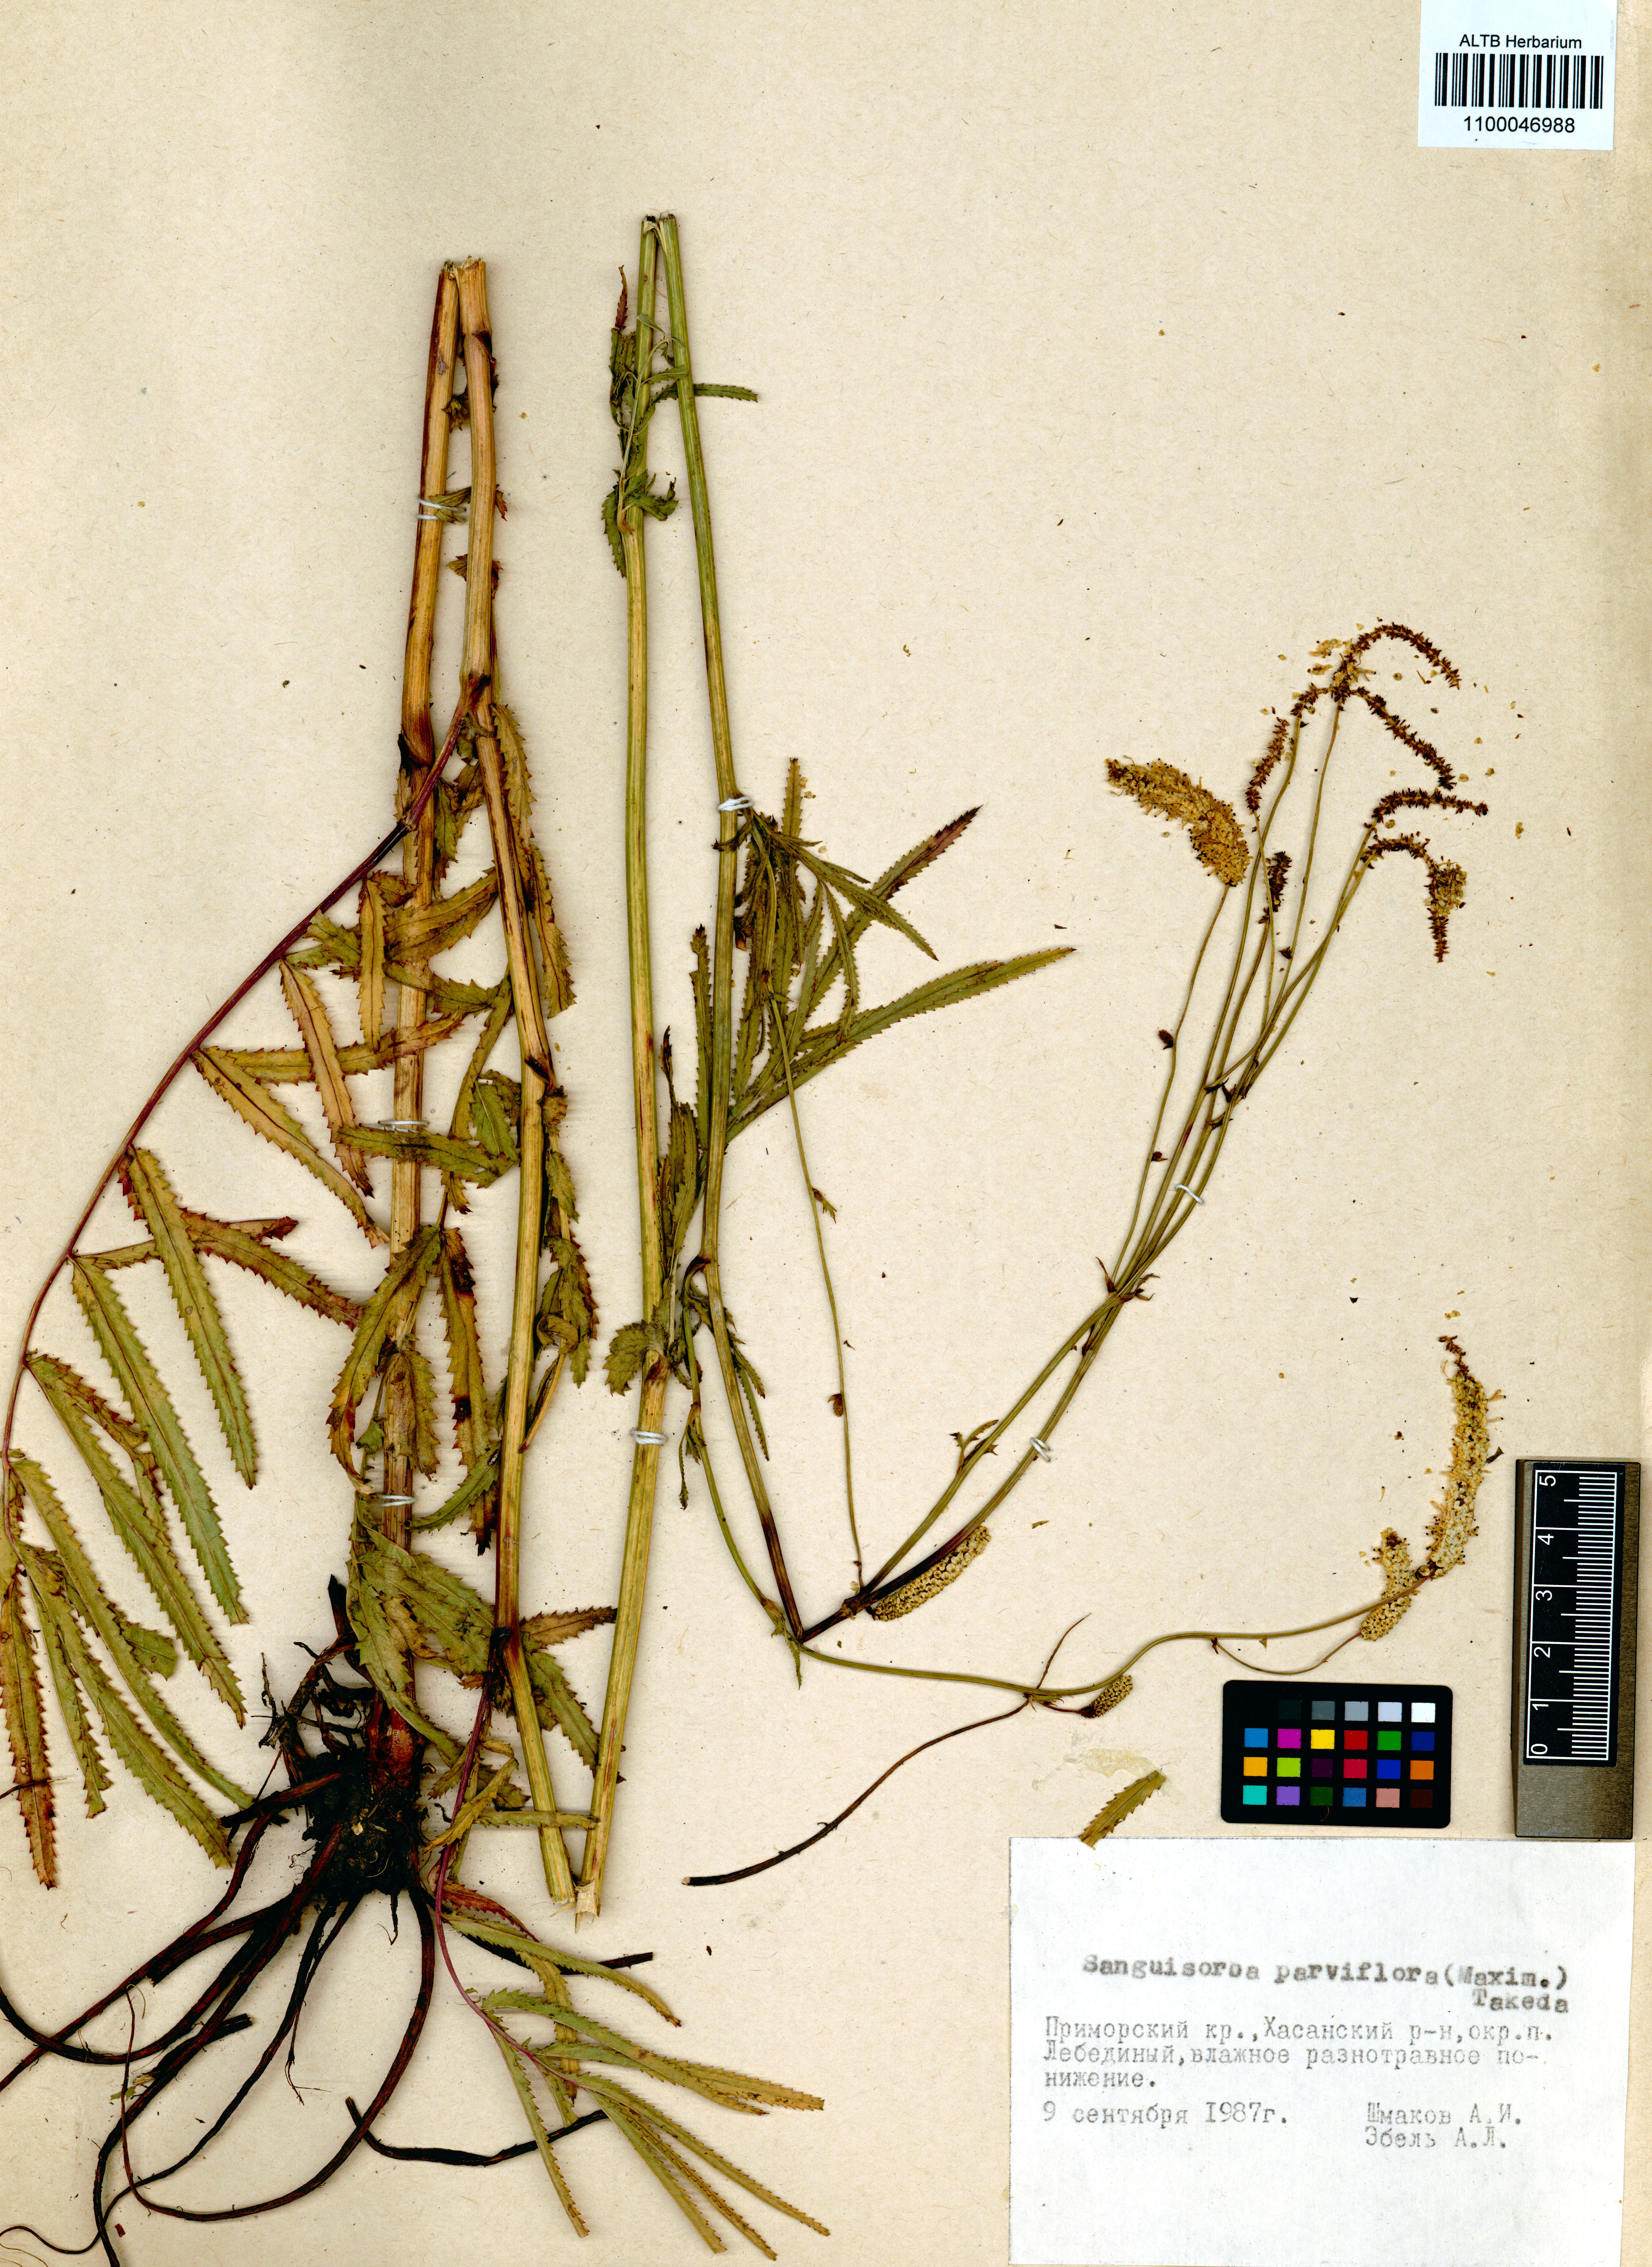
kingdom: Plantae
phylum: Tracheophyta
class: Magnoliopsida
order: Rosales
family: Rosaceae
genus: Poterium
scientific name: Poterium tenuifolium
